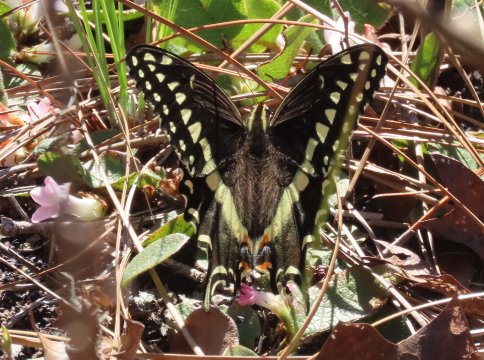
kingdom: Animalia
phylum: Arthropoda
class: Insecta
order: Lepidoptera
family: Papilionidae
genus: Pterourus
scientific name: Pterourus palamedes
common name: Palamedes Swallowtail
